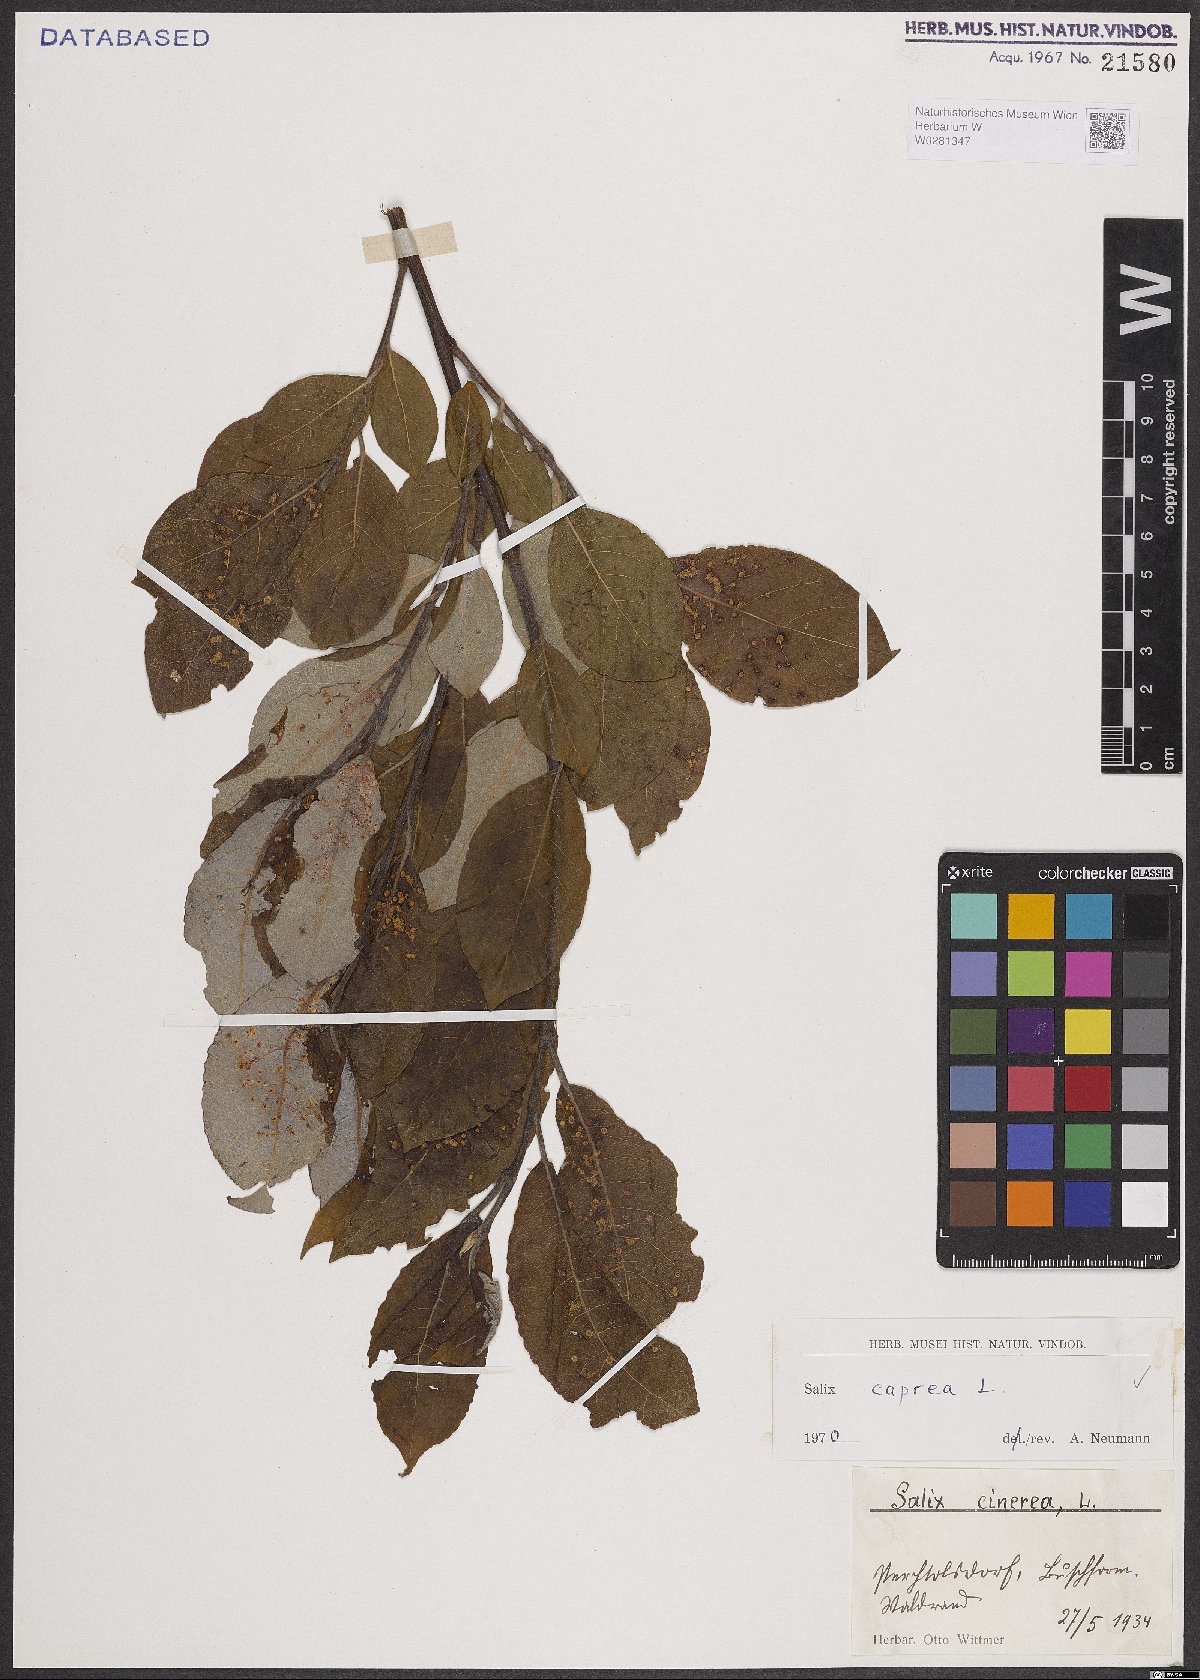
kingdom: Plantae
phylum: Tracheophyta
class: Magnoliopsida
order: Malpighiales
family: Salicaceae
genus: Salix
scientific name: Salix caprea
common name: Goat willow
